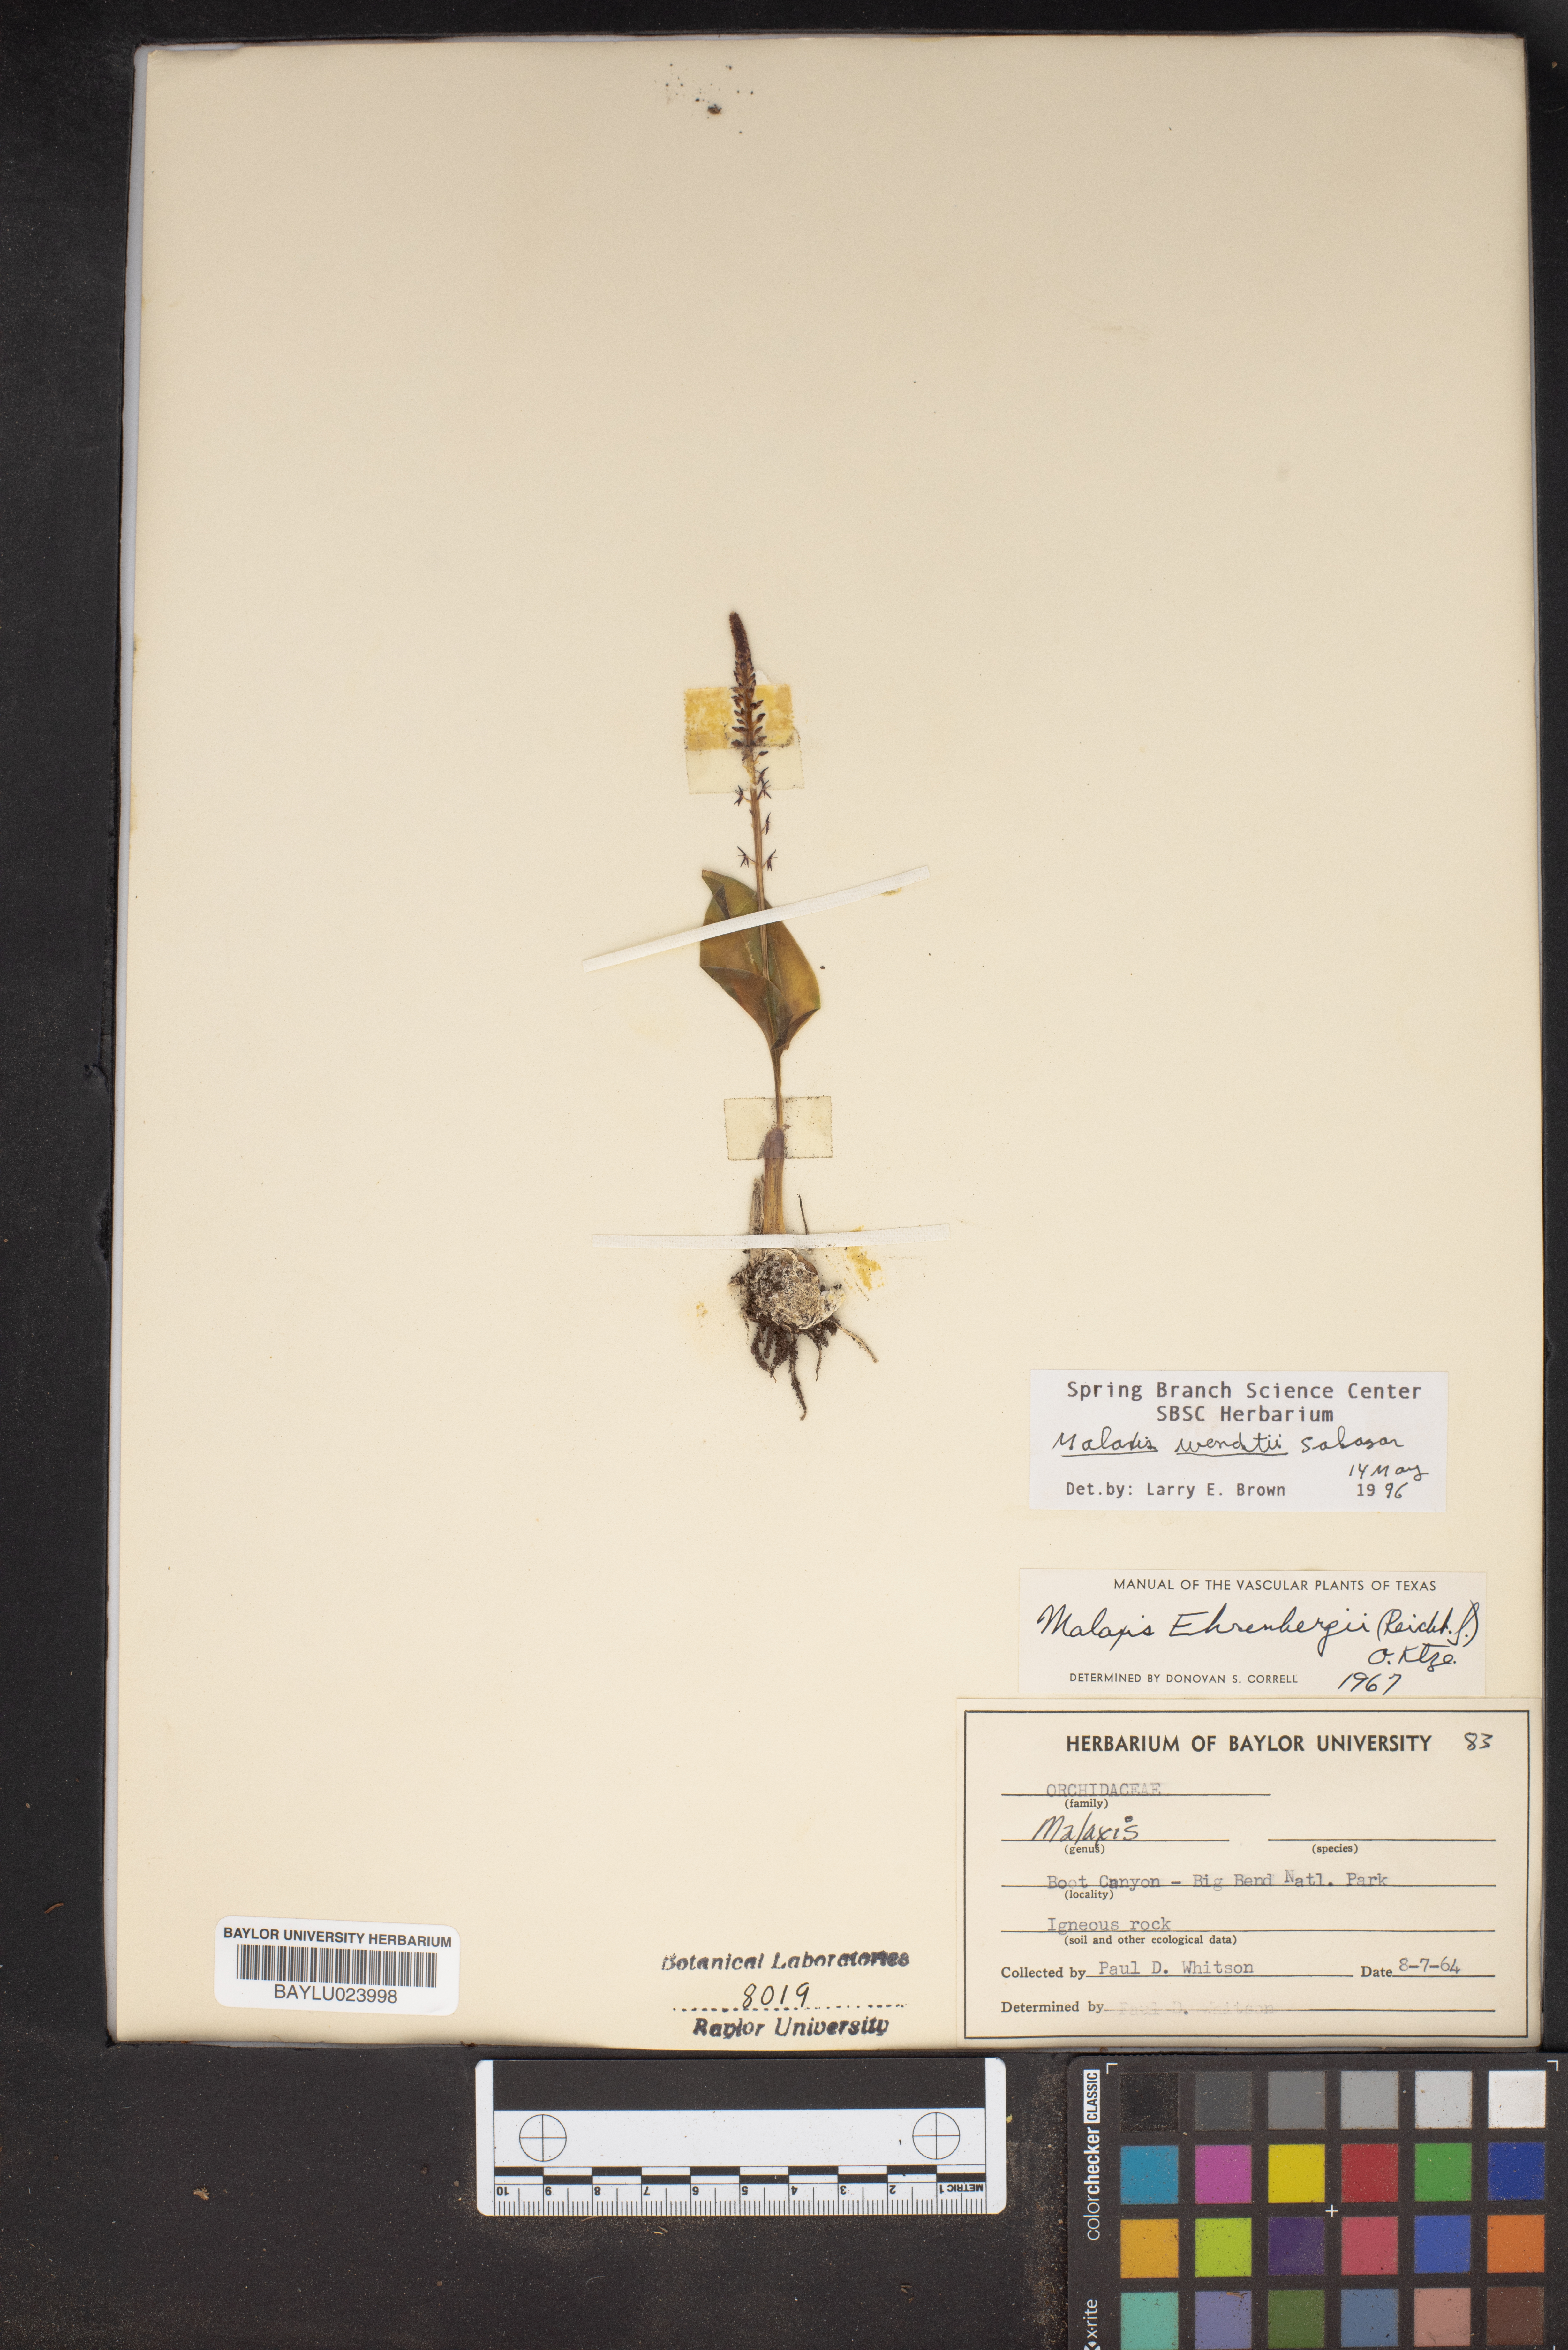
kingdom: Plantae
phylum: Tracheophyta
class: Liliopsida
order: Asparagales
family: Orchidaceae
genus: Tamayorkis
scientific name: Tamayorkis ehrenbergii
